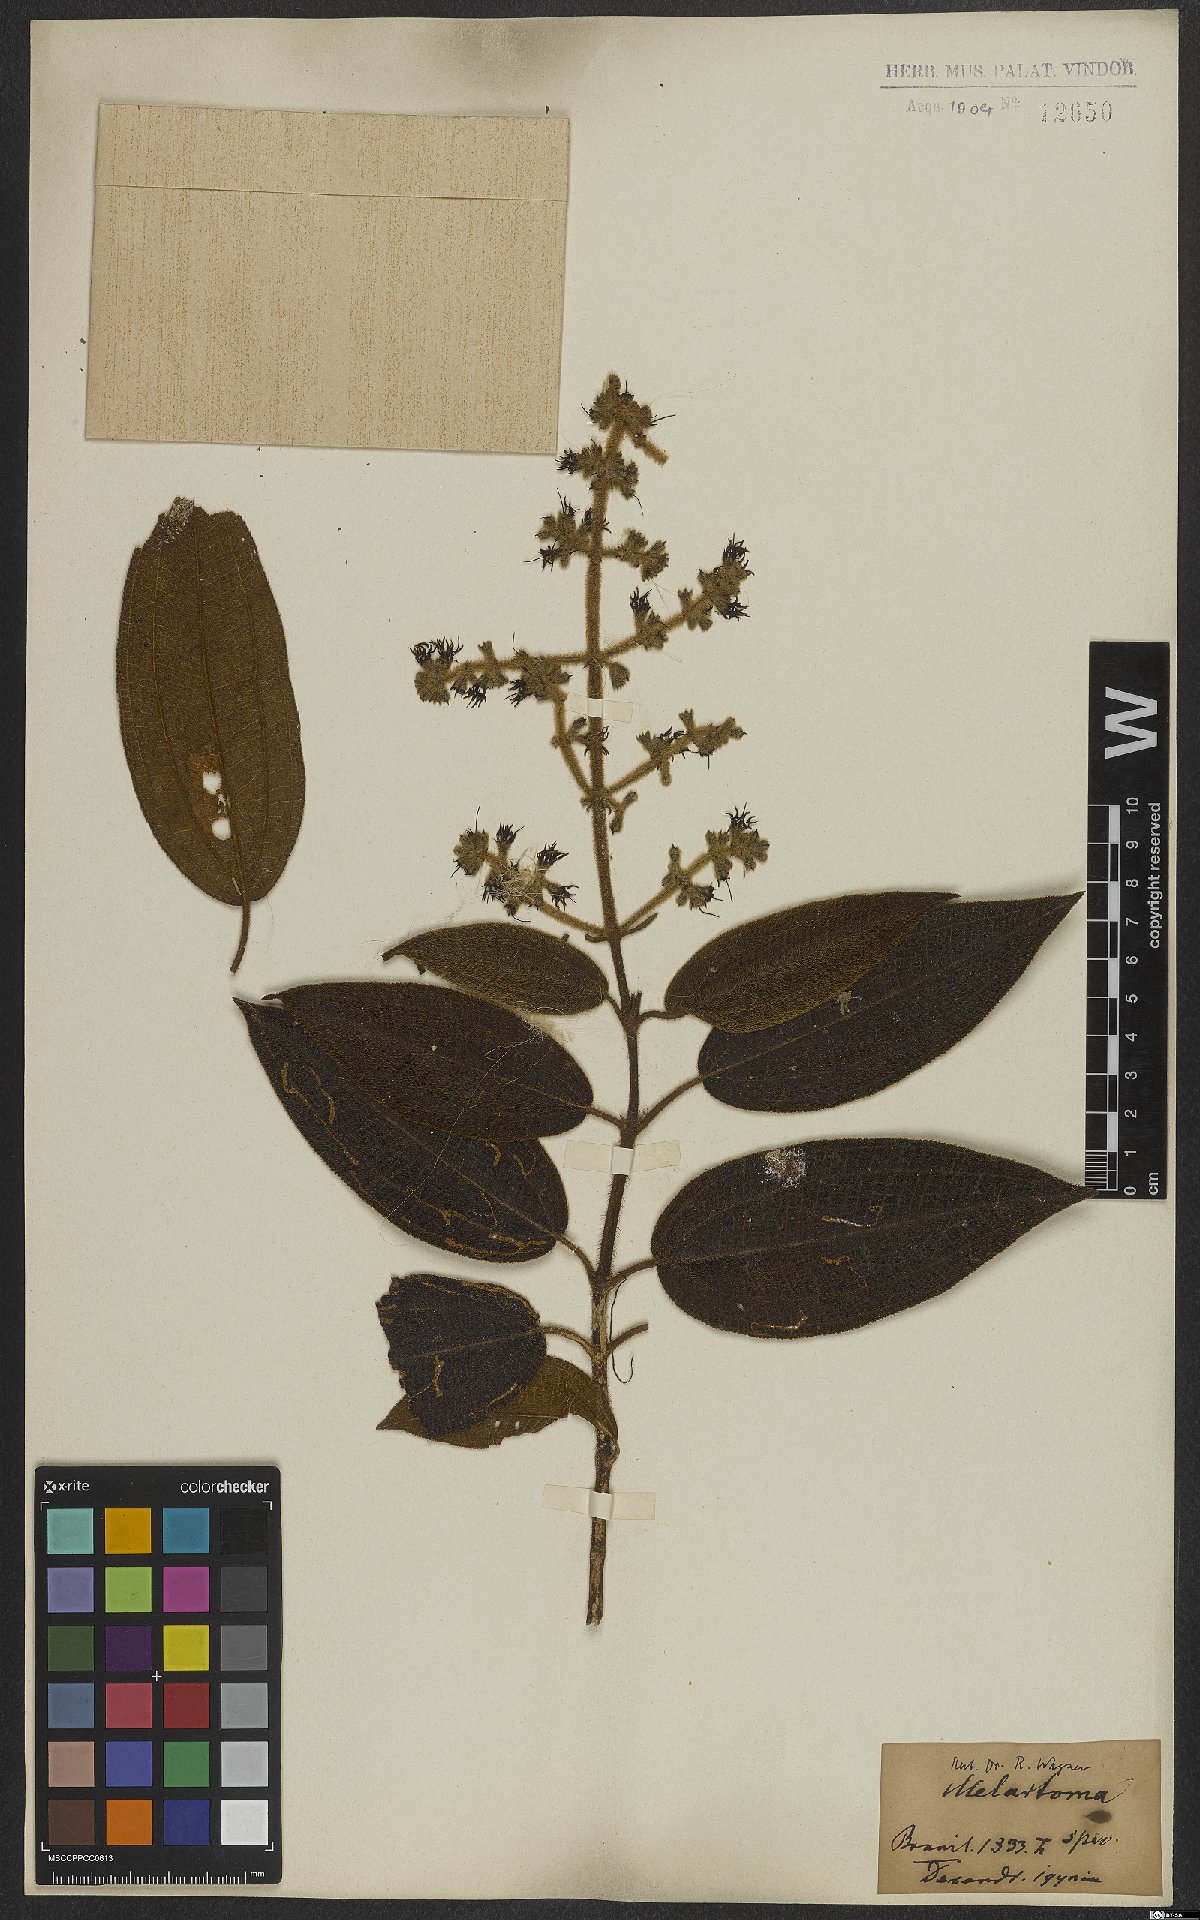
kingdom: Plantae
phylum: Tracheophyta
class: Magnoliopsida
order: Myrtales
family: Melastomataceae
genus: Miconia
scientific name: Miconia
